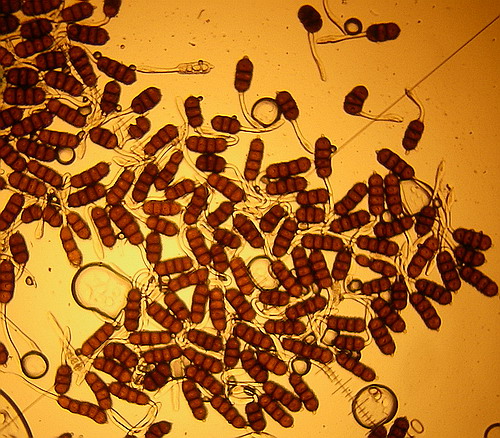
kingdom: Fungi
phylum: Basidiomycota
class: Pucciniomycetes
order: Pucciniales
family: Phragmidiaceae
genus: Phragmidium
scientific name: Phragmidium violaceum
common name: violet flercellerust
